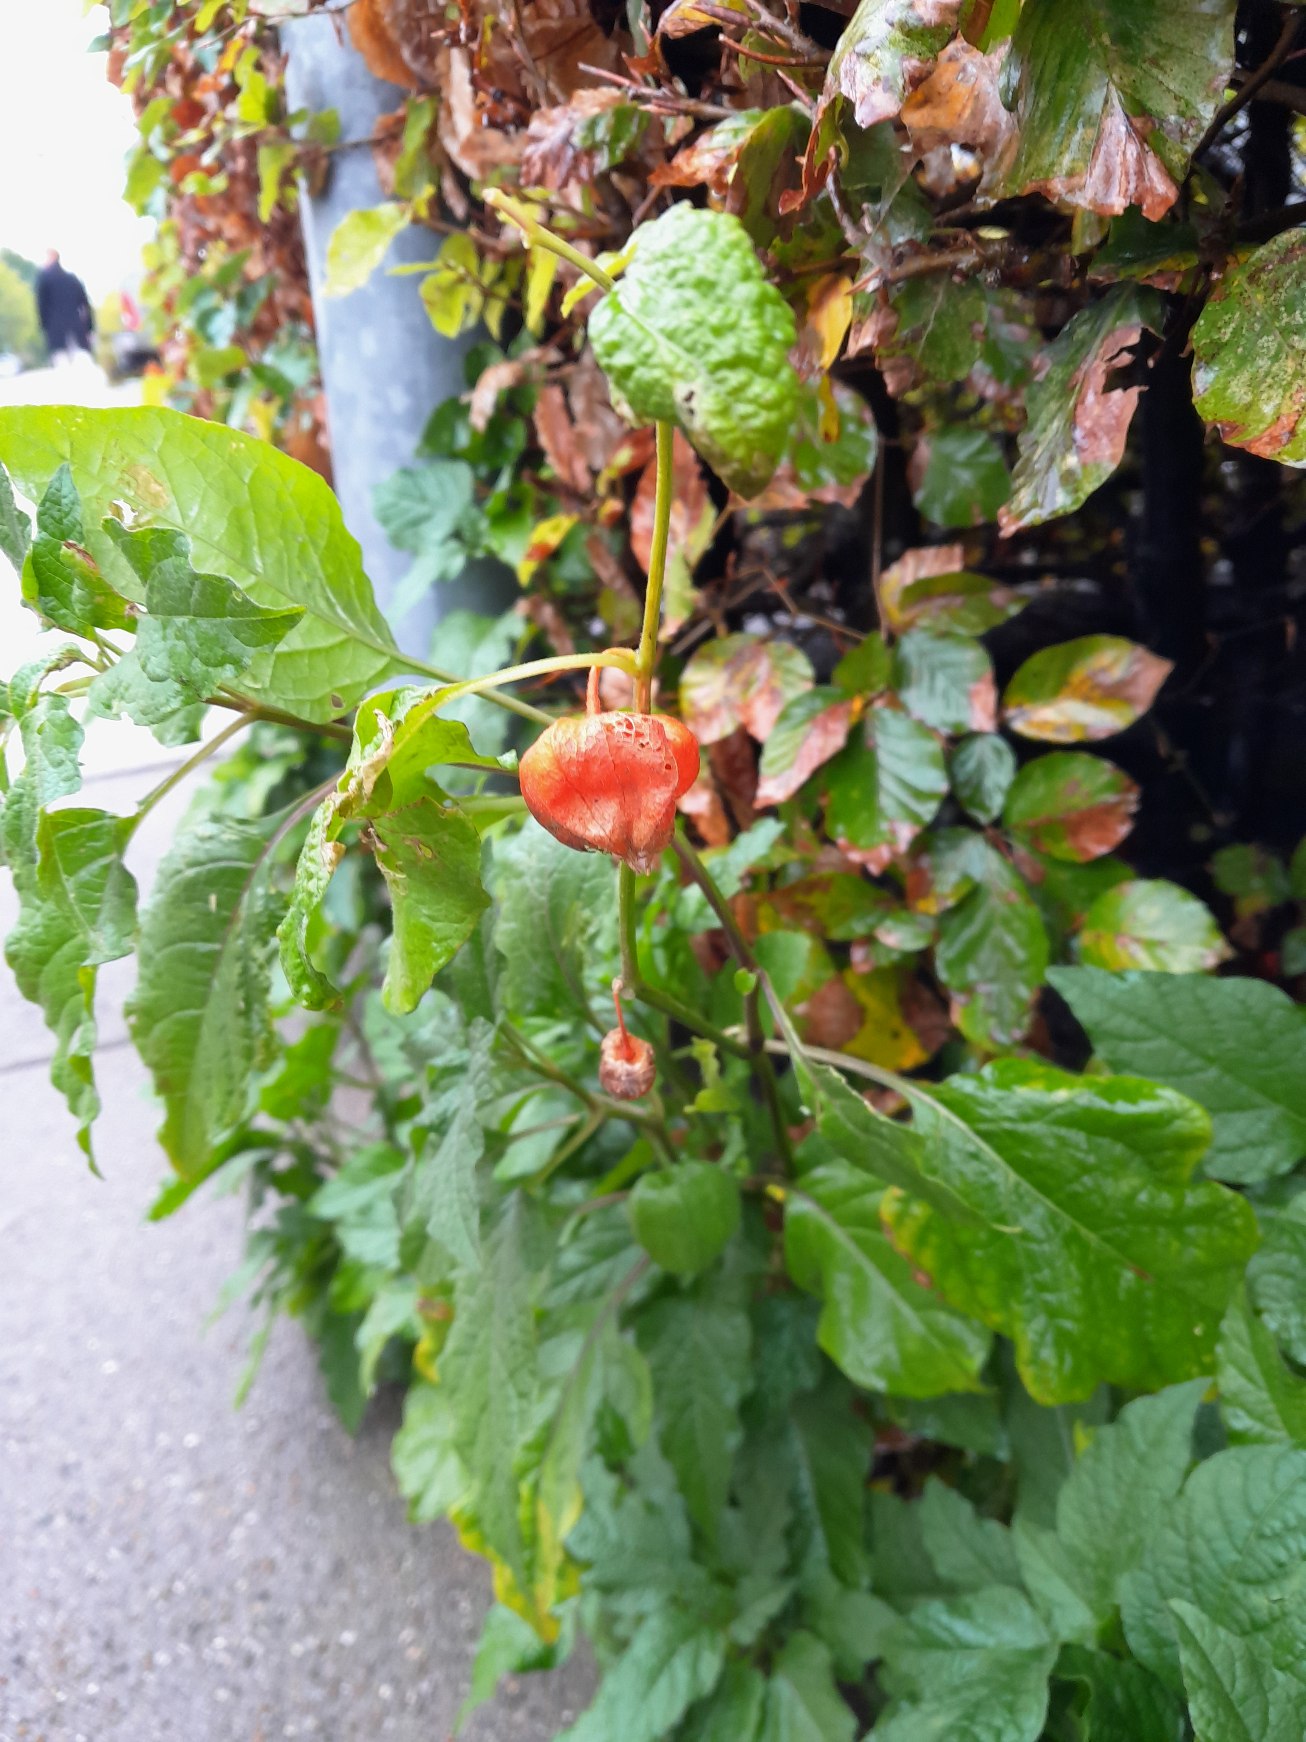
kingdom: Plantae
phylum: Tracheophyta
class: Magnoliopsida
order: Solanales
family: Solanaceae
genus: Alkekengi
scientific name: Alkekengi officinarum
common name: Jødekirsebær
